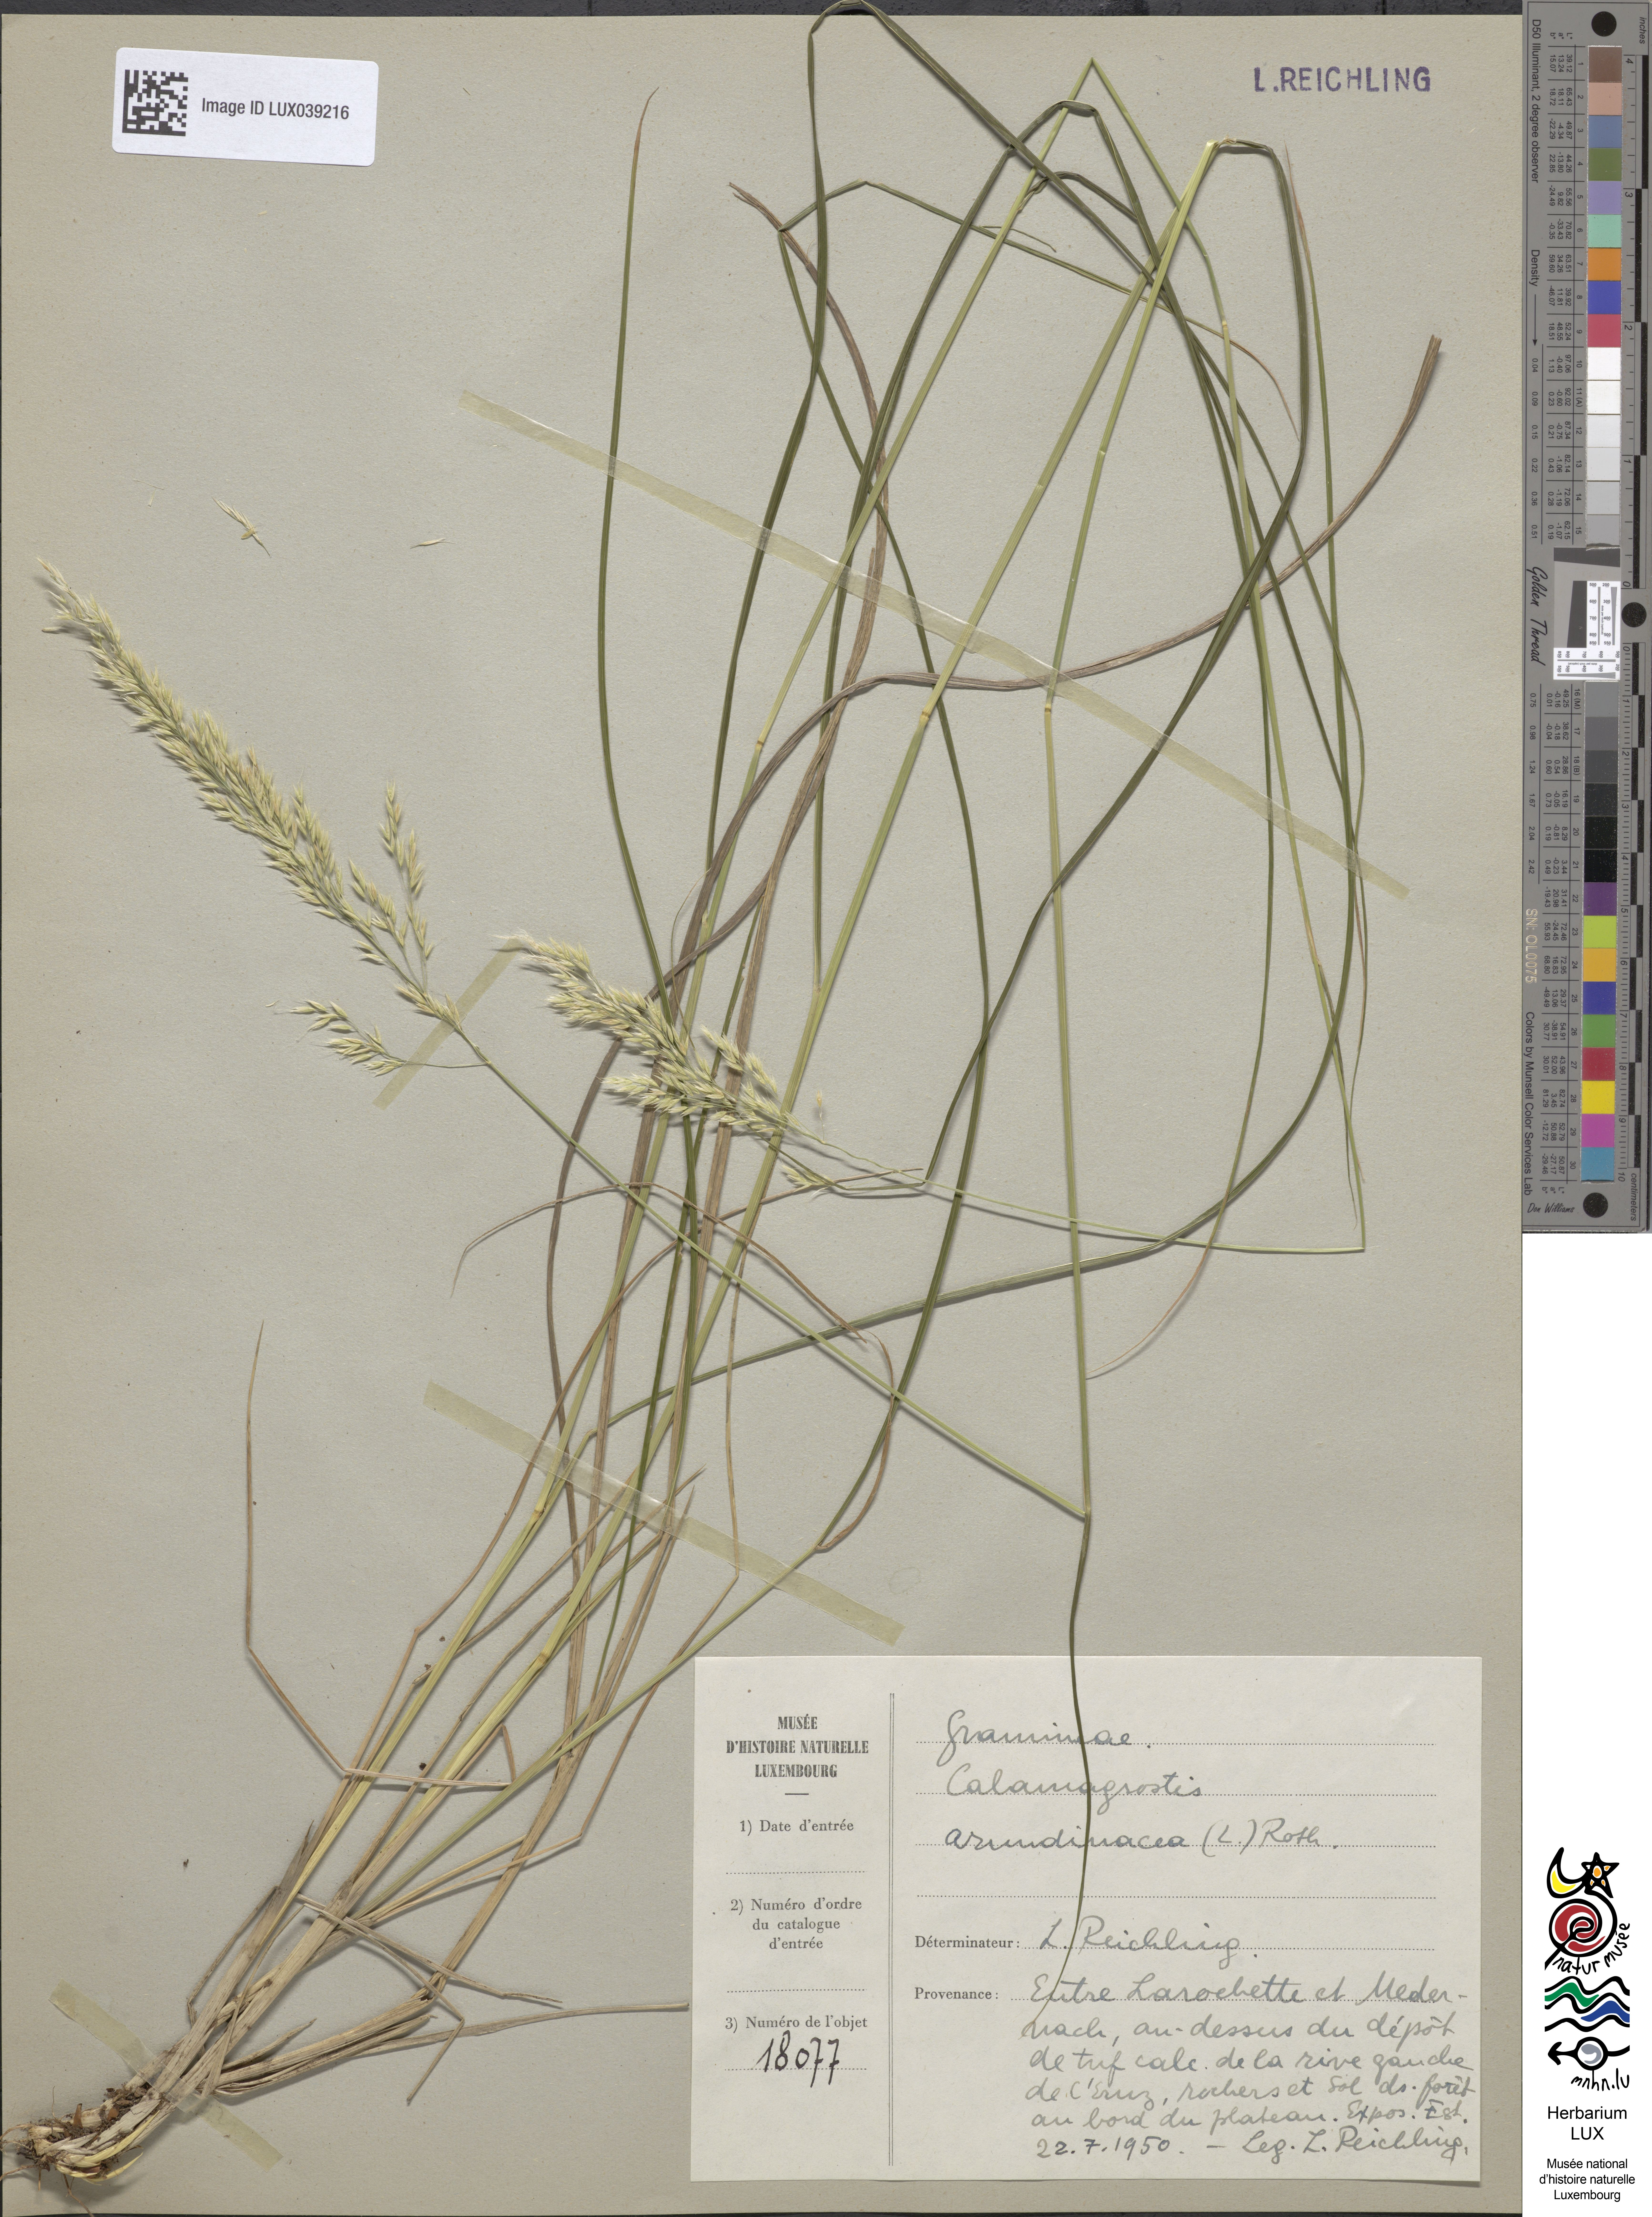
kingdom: Plantae
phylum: Tracheophyta
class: Liliopsida
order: Poales
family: Poaceae
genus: Calamagrostis
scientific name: Calamagrostis arundinacea
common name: Metskastik
